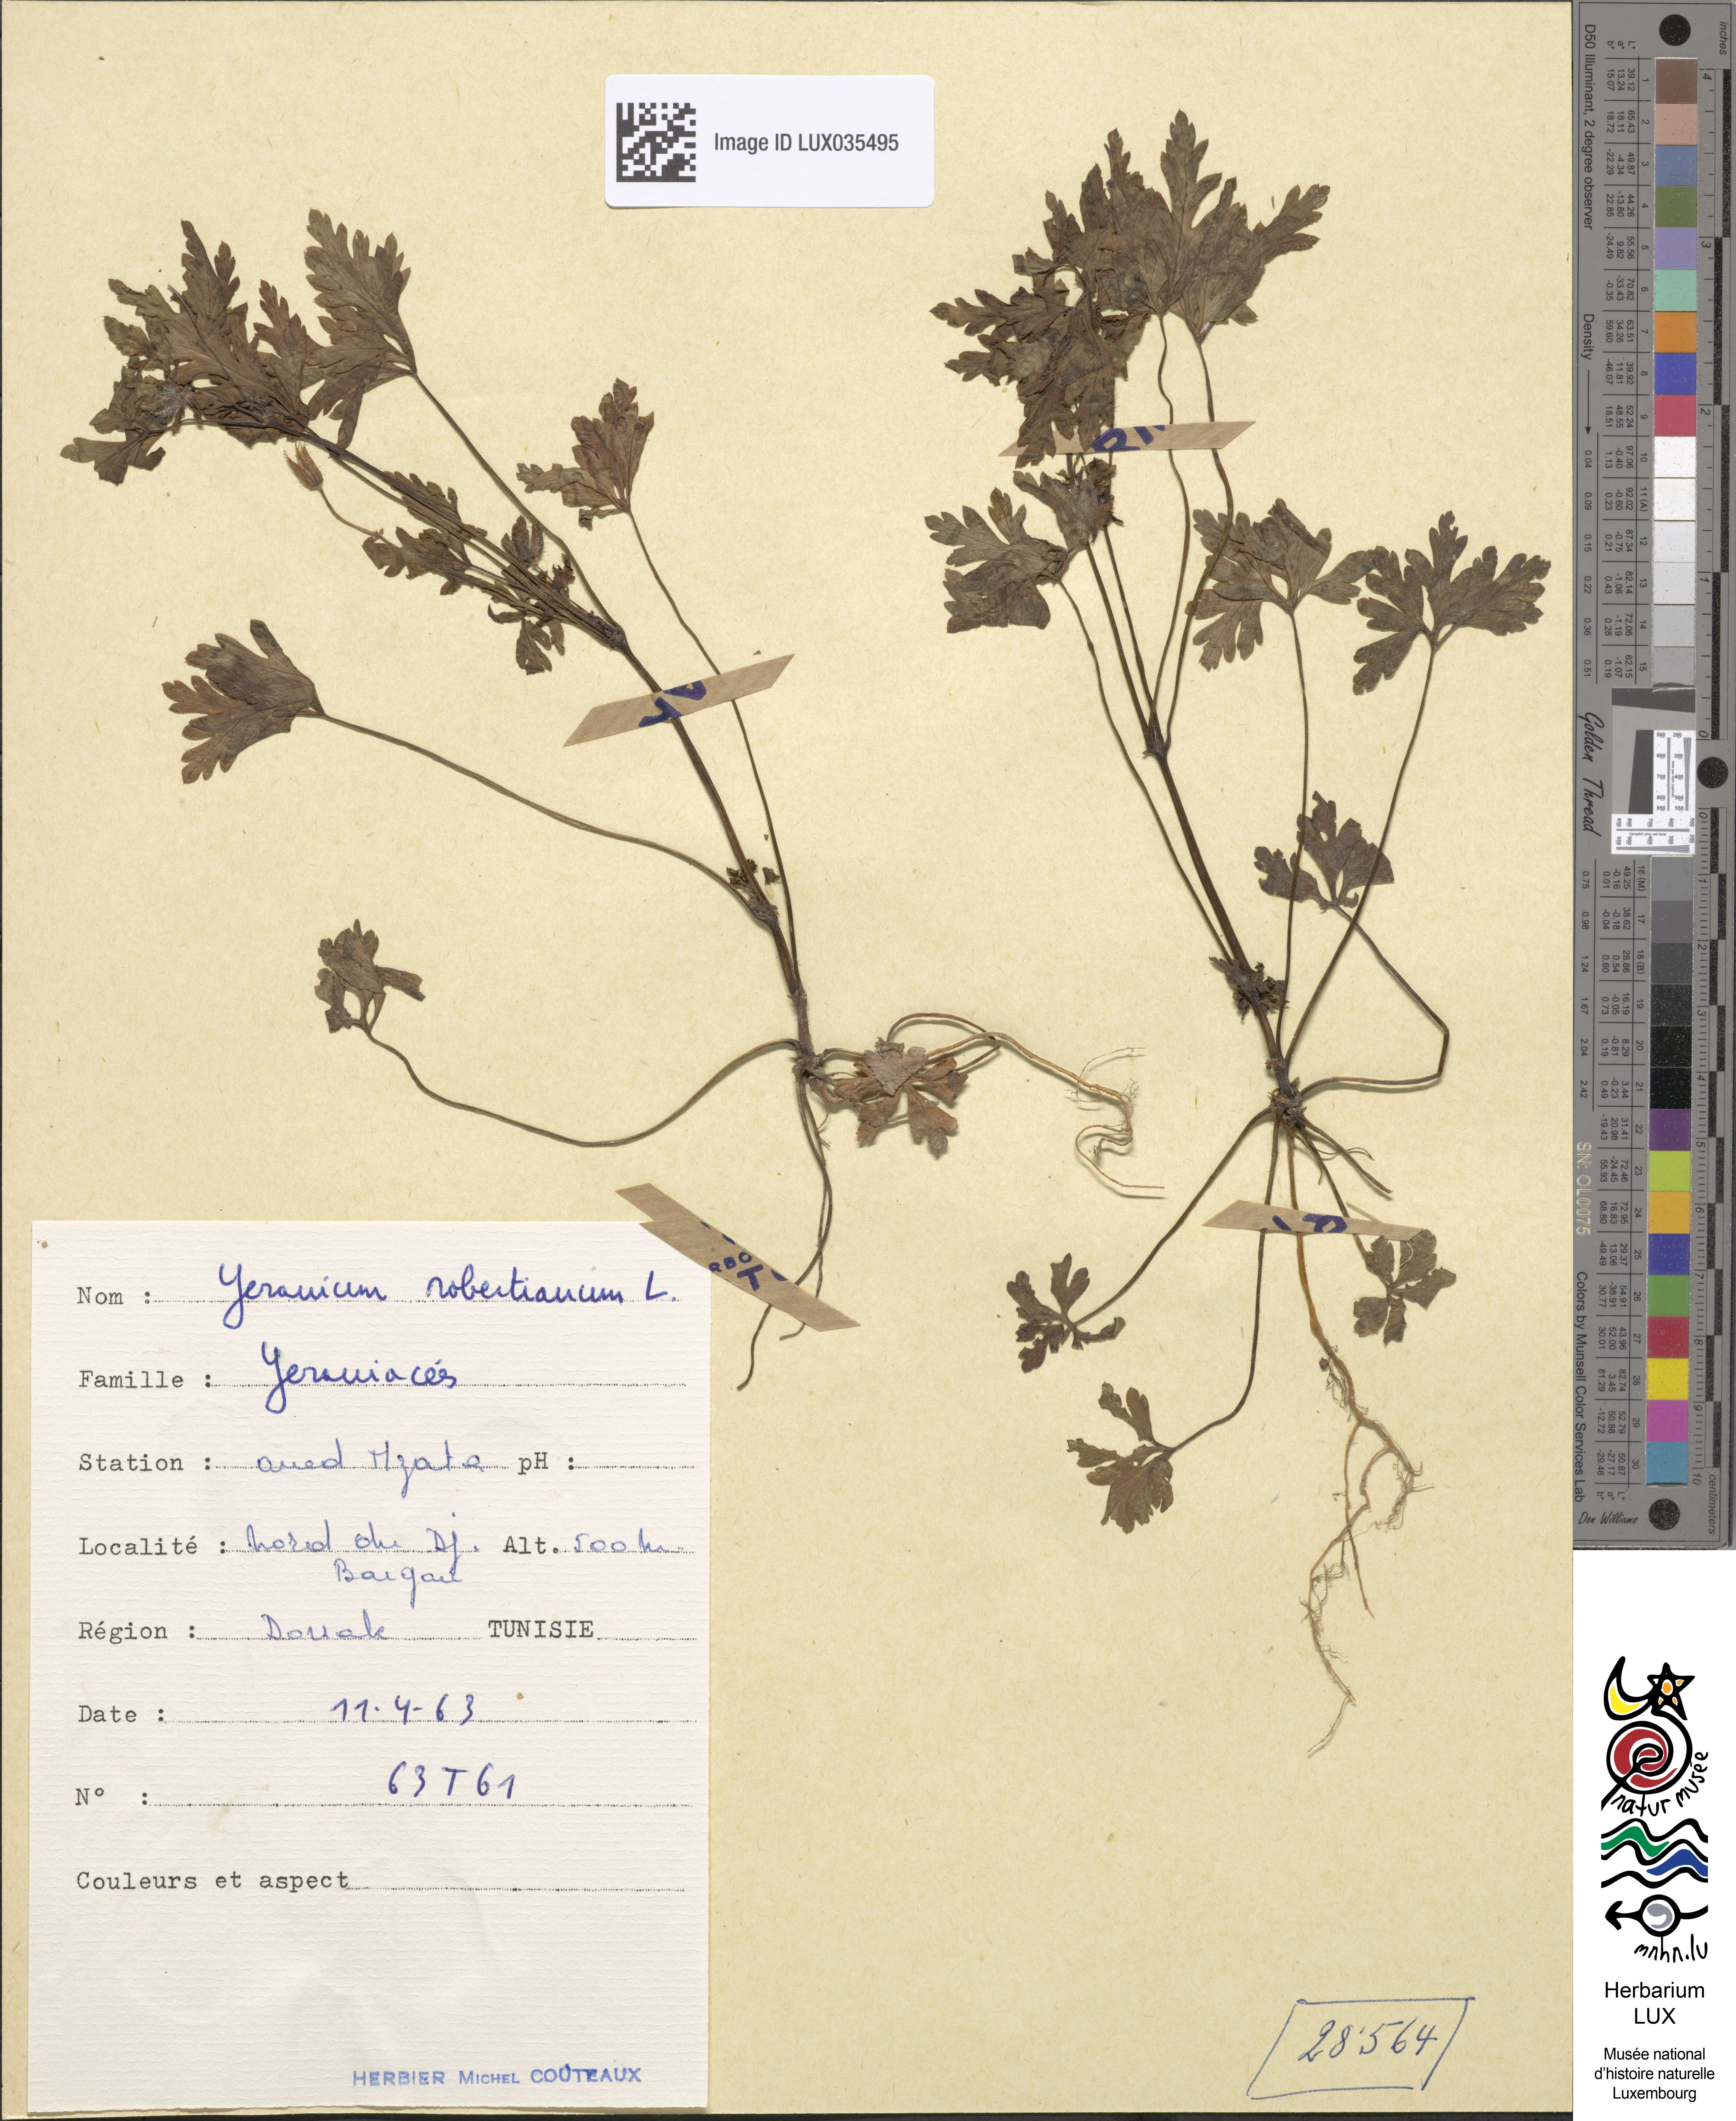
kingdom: Plantae
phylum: Tracheophyta
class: Magnoliopsida
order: Geraniales
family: Geraniaceae
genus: Geranium
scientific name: Geranium robertianum
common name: Herb-robert
